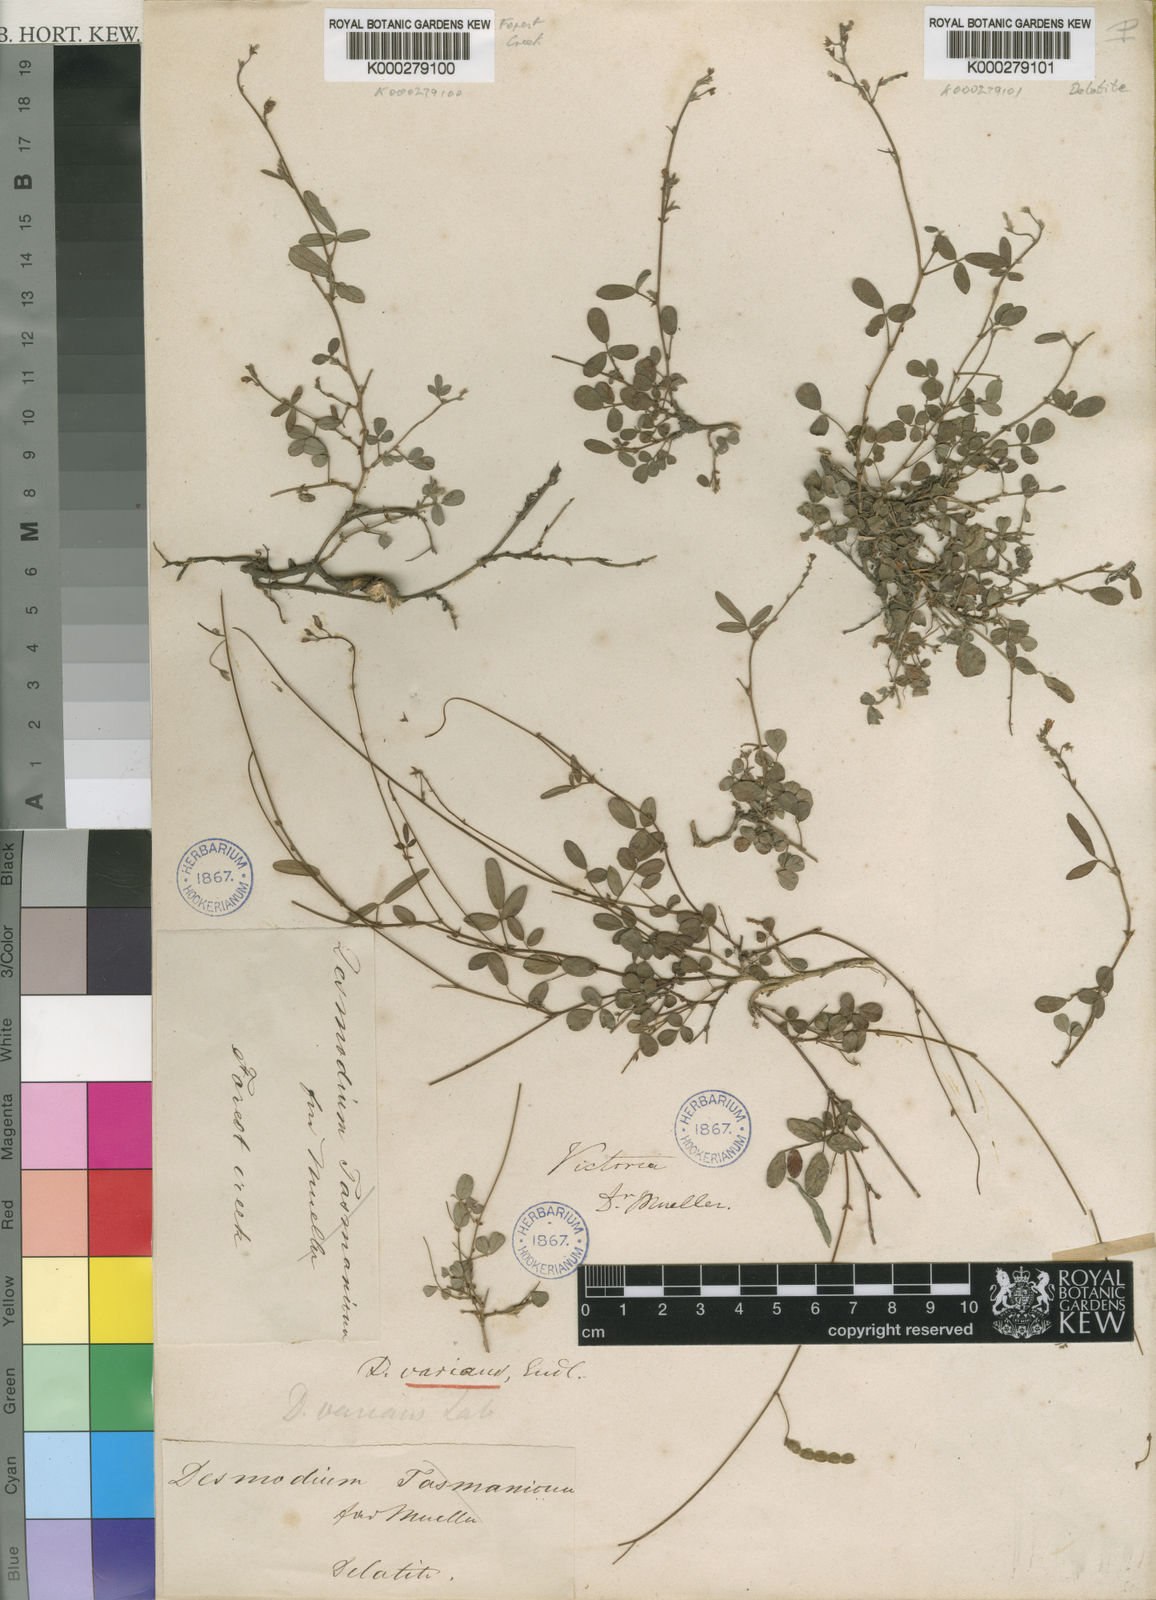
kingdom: Plantae
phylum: Tracheophyta
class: Magnoliopsida
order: Fabales
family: Fabaceae
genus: Grona
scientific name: Grona varians
